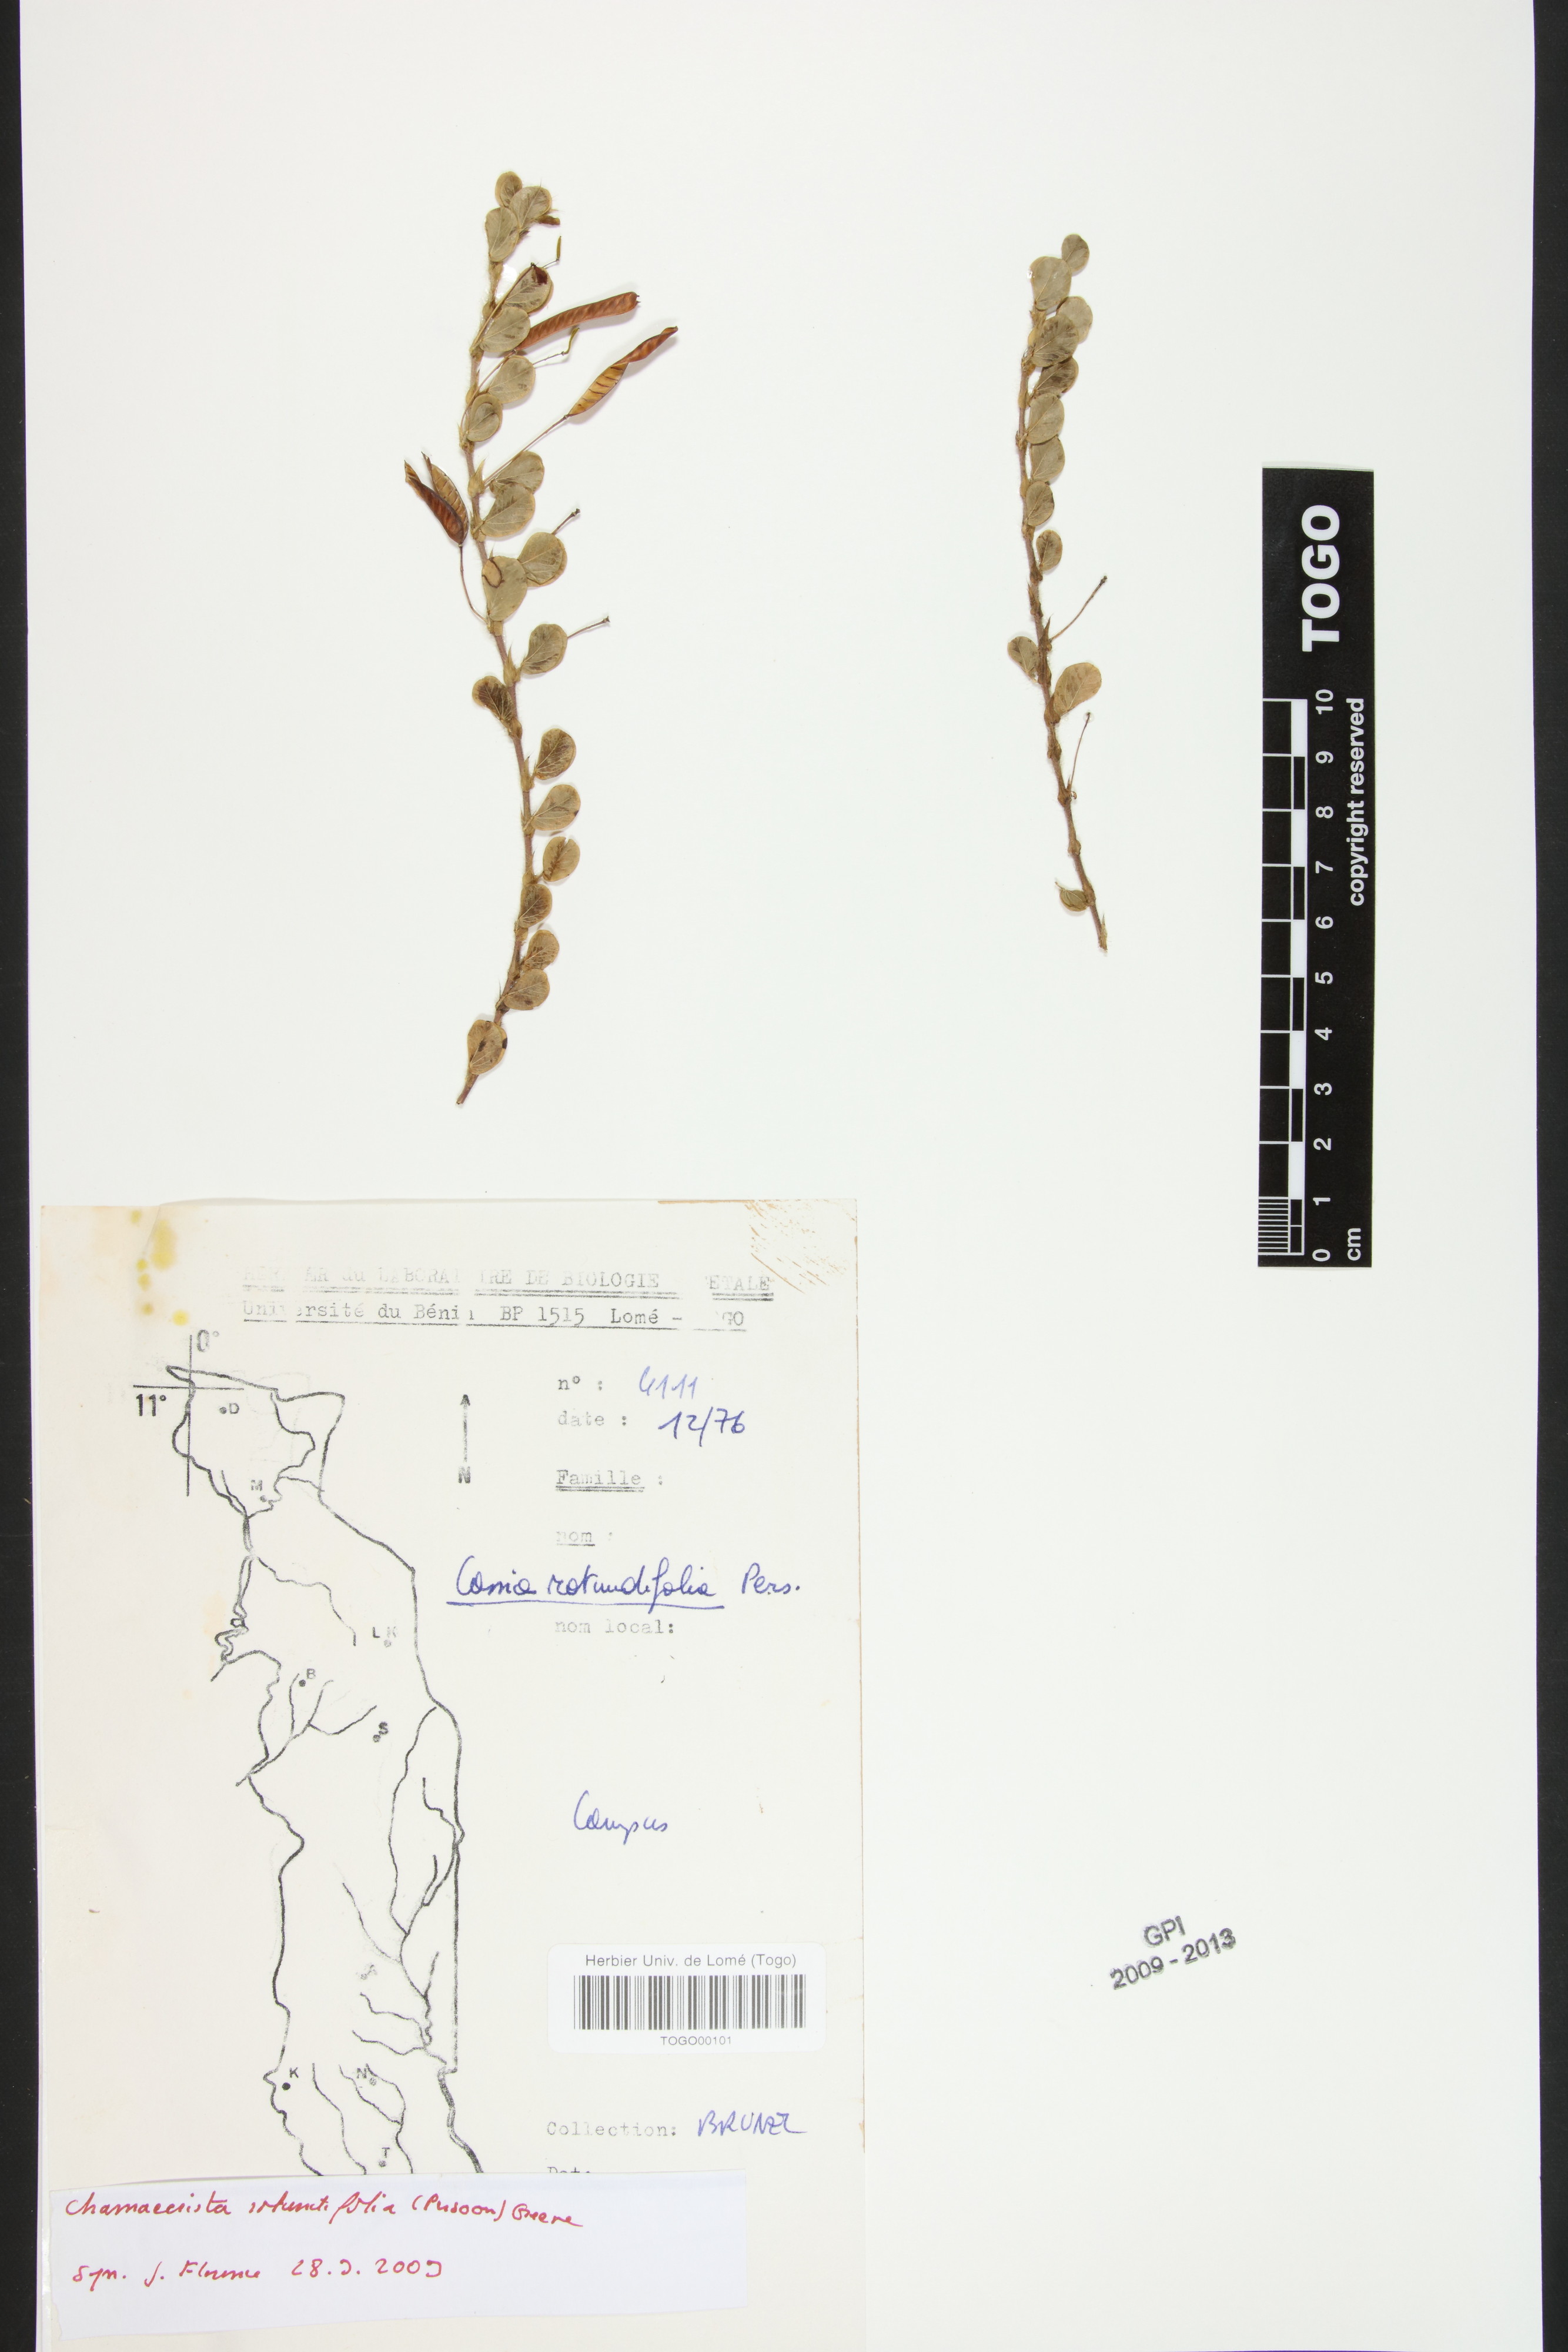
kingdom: Plantae
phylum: Tracheophyta
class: Magnoliopsida
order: Fabales
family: Fabaceae
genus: Chamaecrista
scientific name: Chamaecrista rotundifolia
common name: Round-leaf cassia
